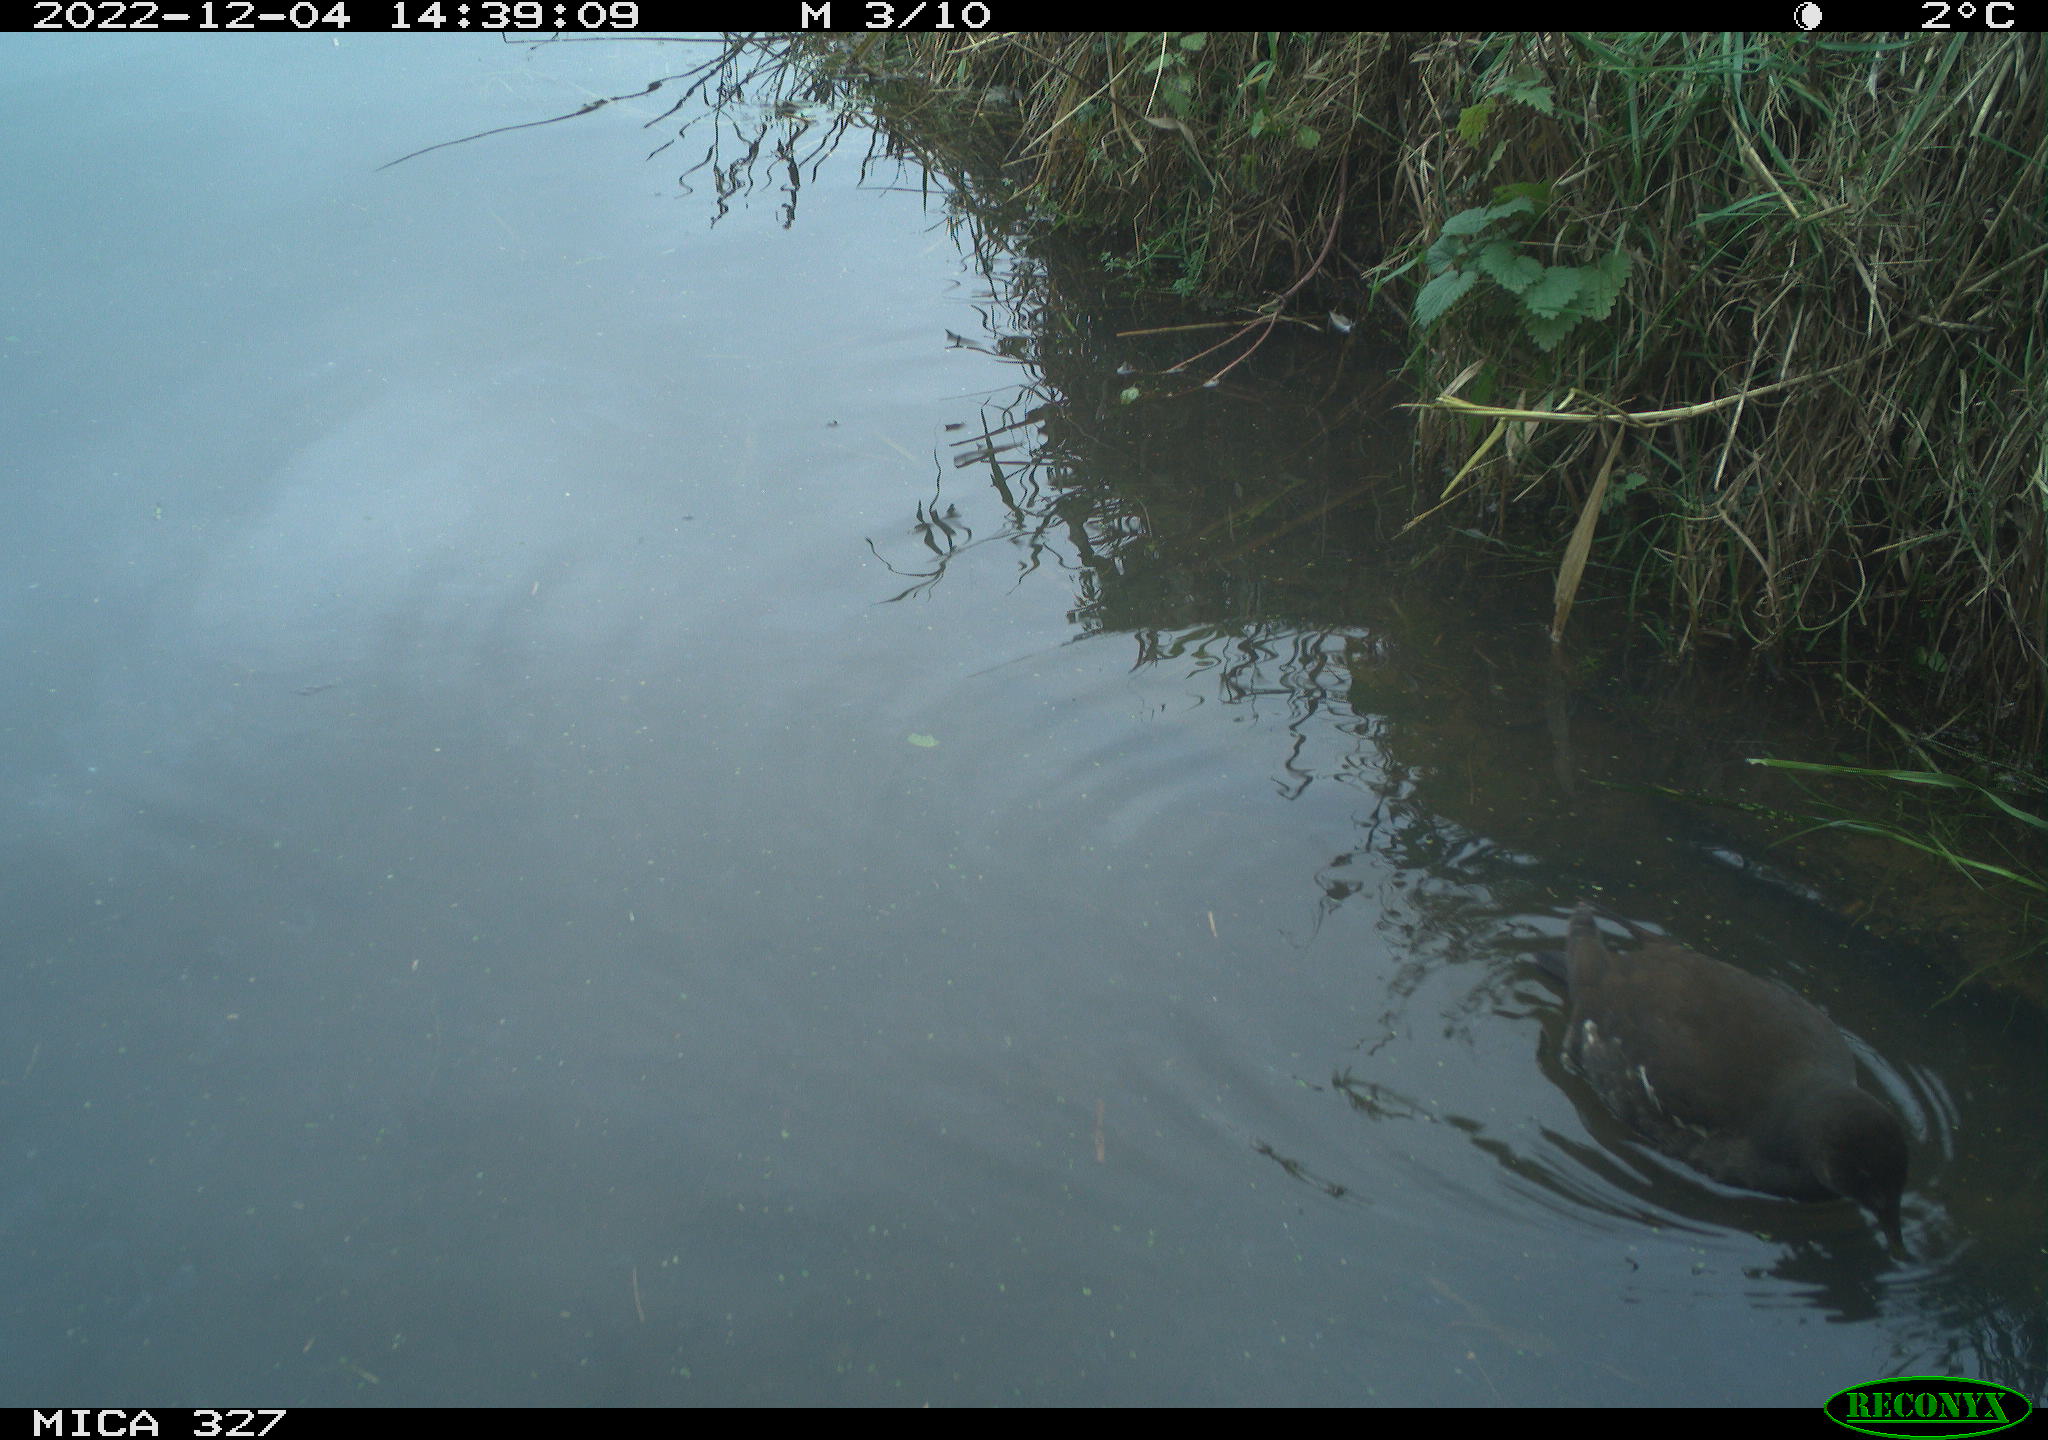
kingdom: Animalia
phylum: Chordata
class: Aves
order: Gruiformes
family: Rallidae
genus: Gallinula
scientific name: Gallinula chloropus
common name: Common moorhen
